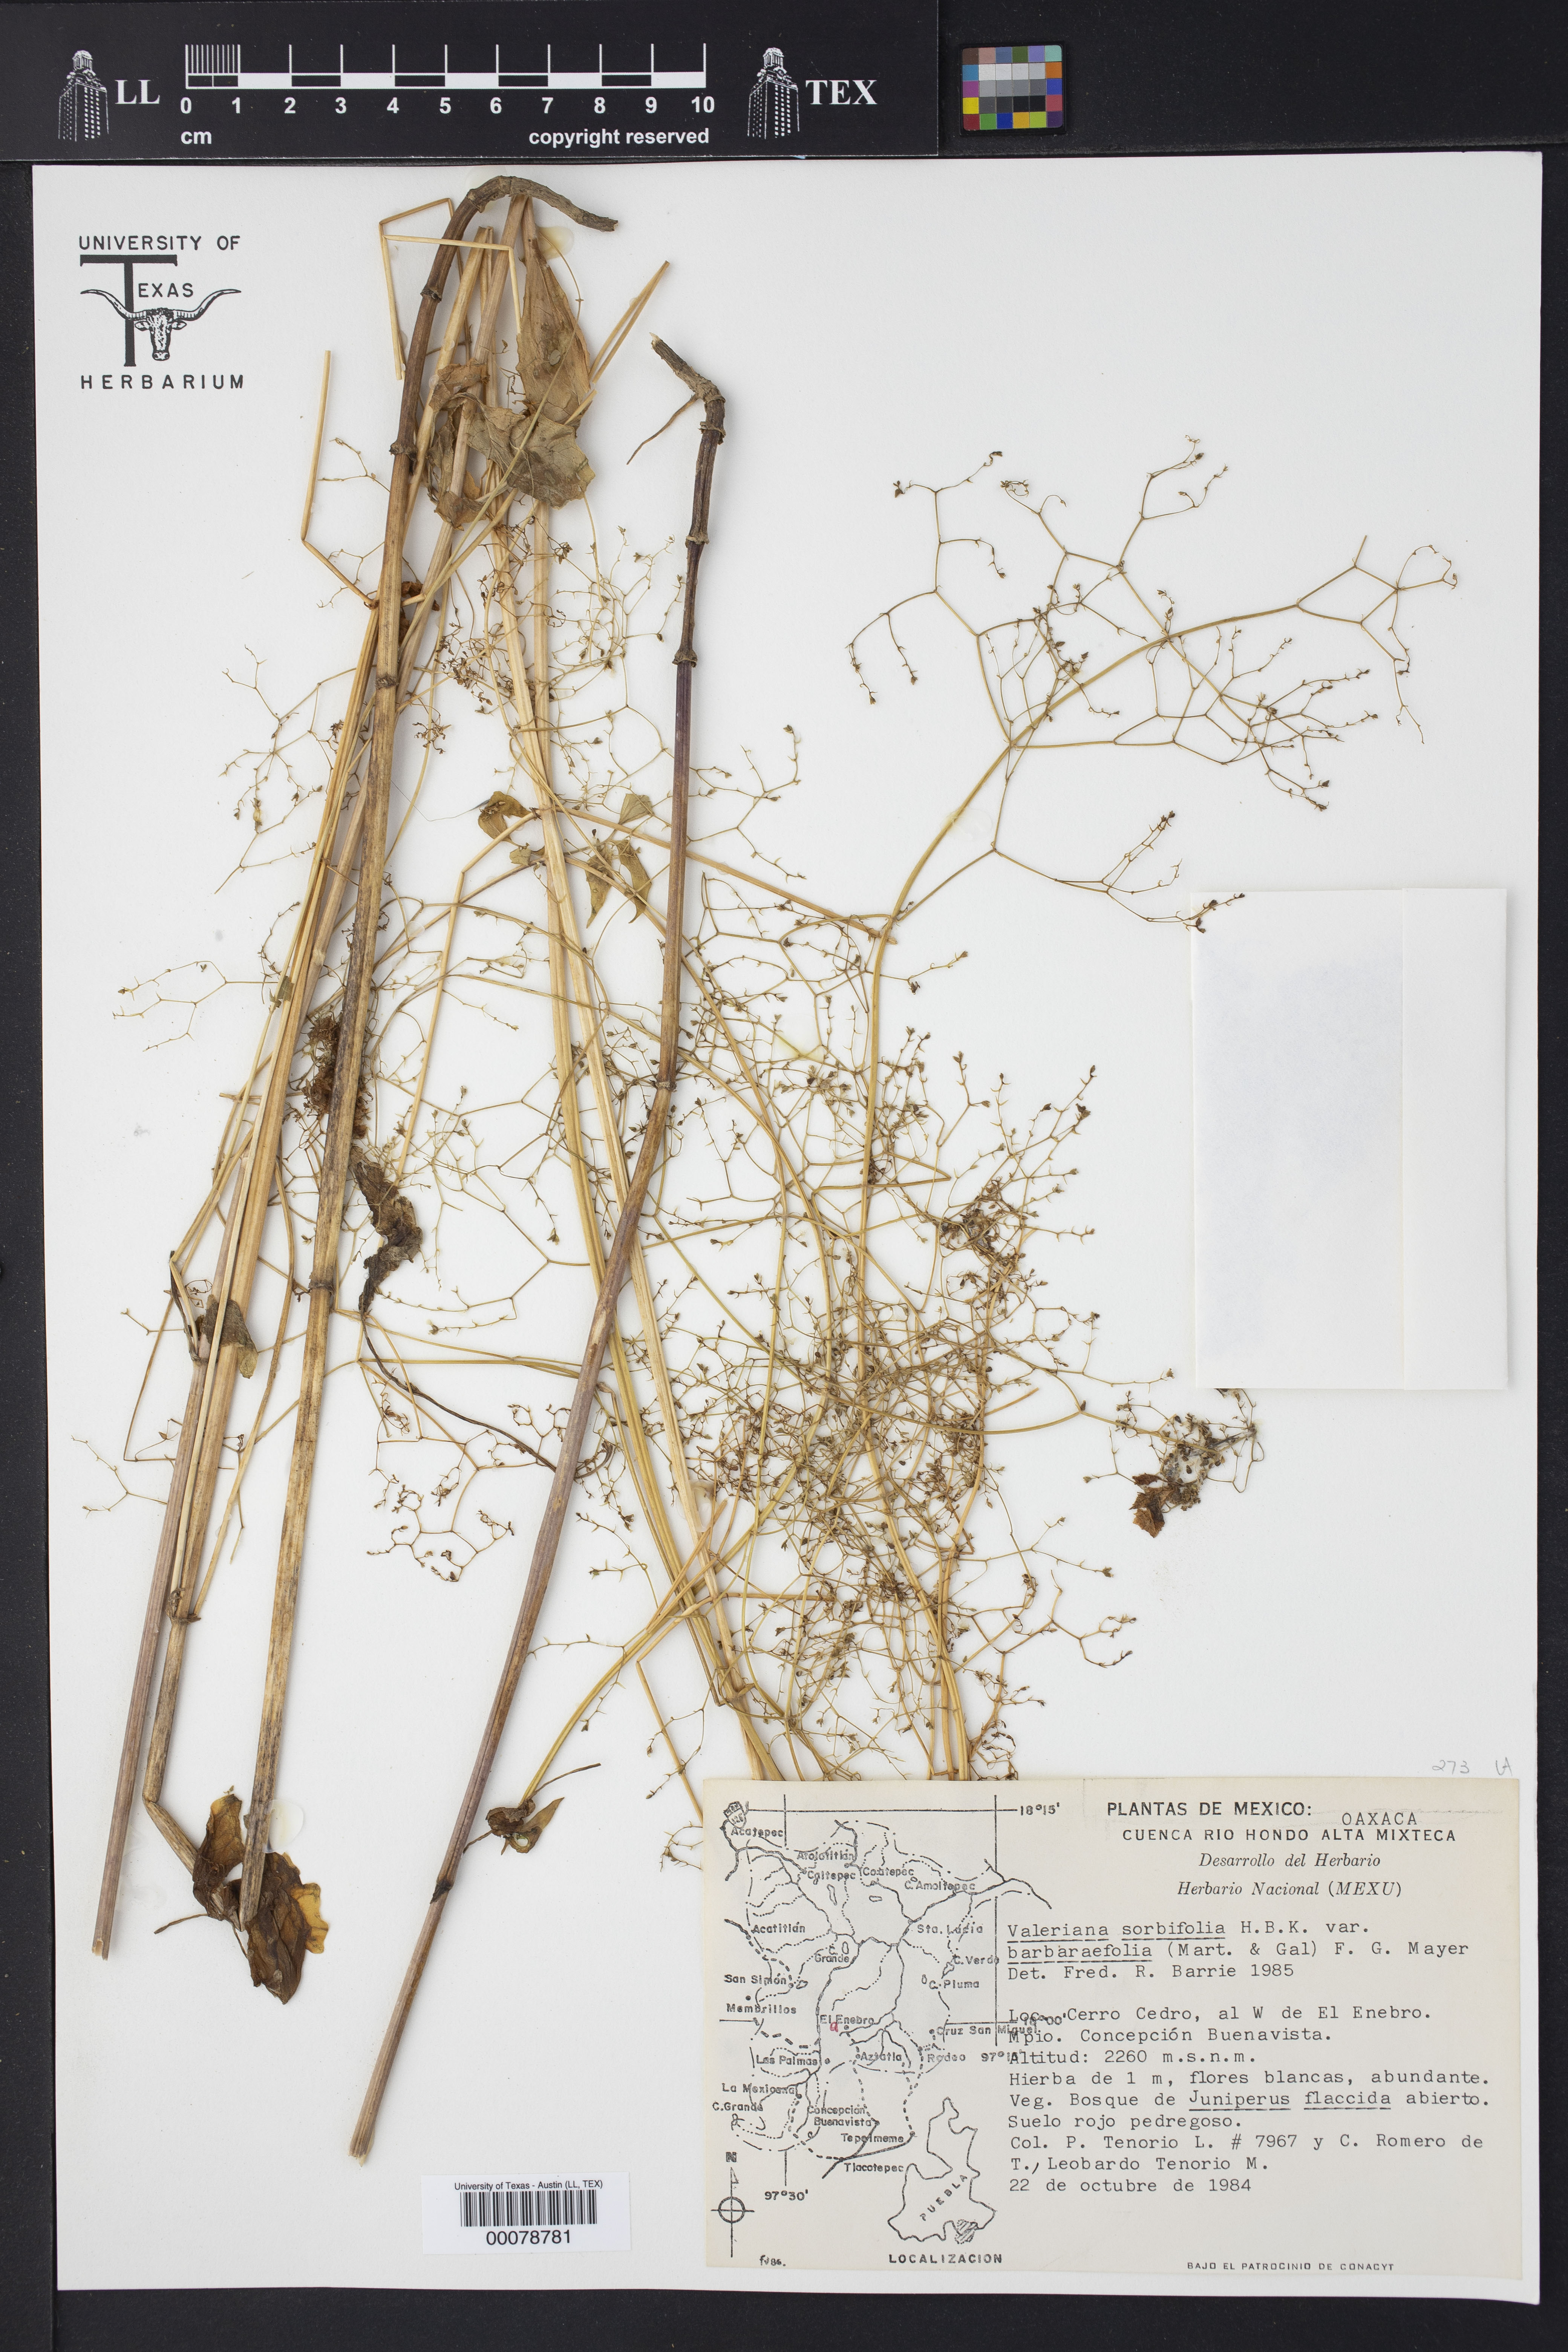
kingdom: Plantae
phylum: Tracheophyta
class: Magnoliopsida
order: Dipsacales
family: Caprifoliaceae
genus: Valeriana
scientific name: Valeriana sorbifolia
